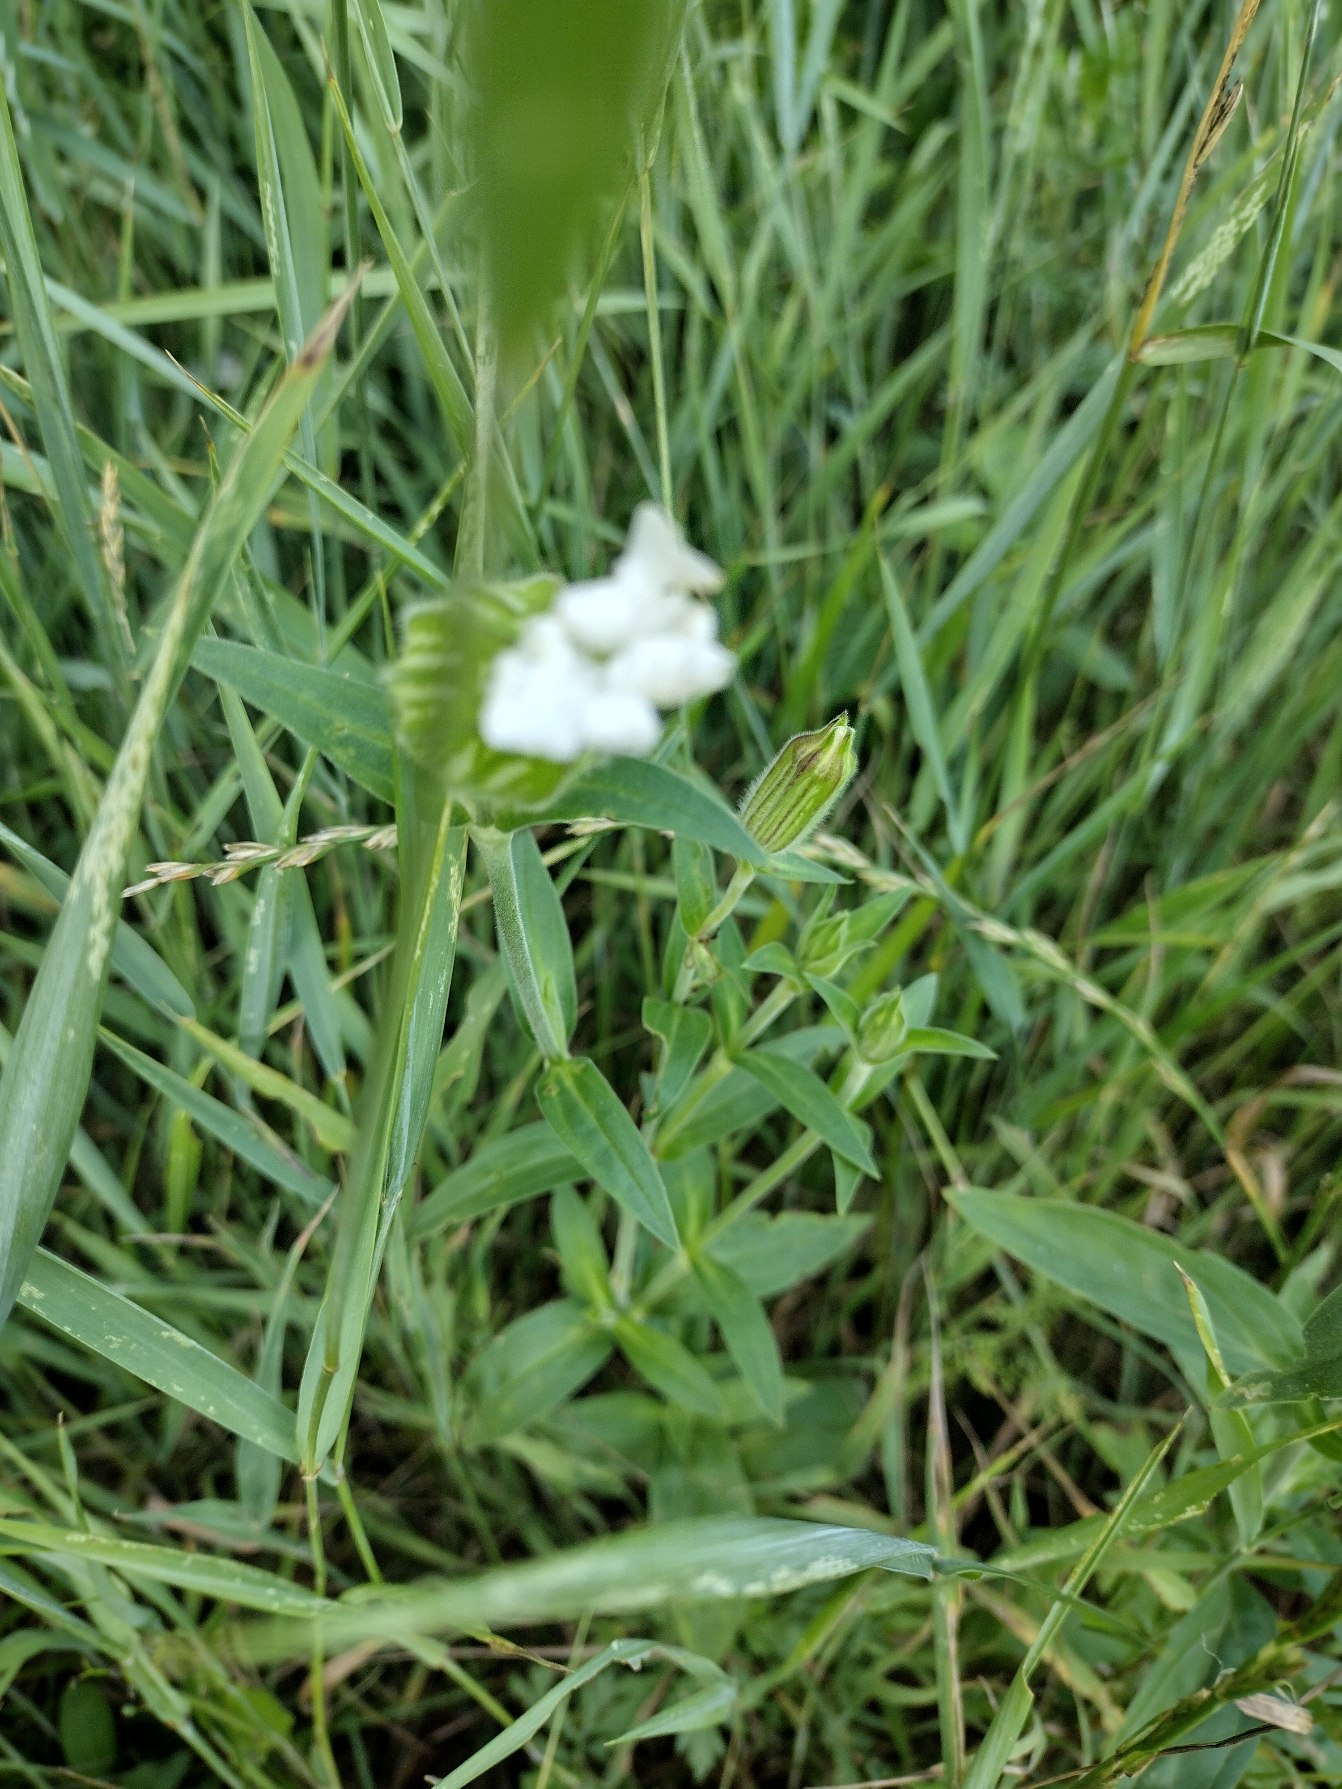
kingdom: Plantae
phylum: Tracheophyta
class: Magnoliopsida
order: Caryophyllales
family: Caryophyllaceae
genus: Silene
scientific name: Silene latifolia
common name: Aftenpragtstjerne
